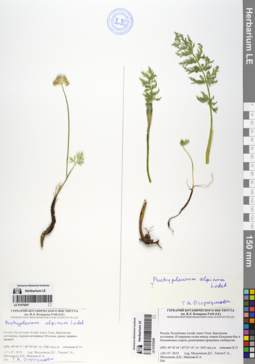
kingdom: Plantae
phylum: Tracheophyta
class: Magnoliopsida
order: Apiales
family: Apiaceae
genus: Pachypleurum
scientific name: Pachypleurum mutellinoides
